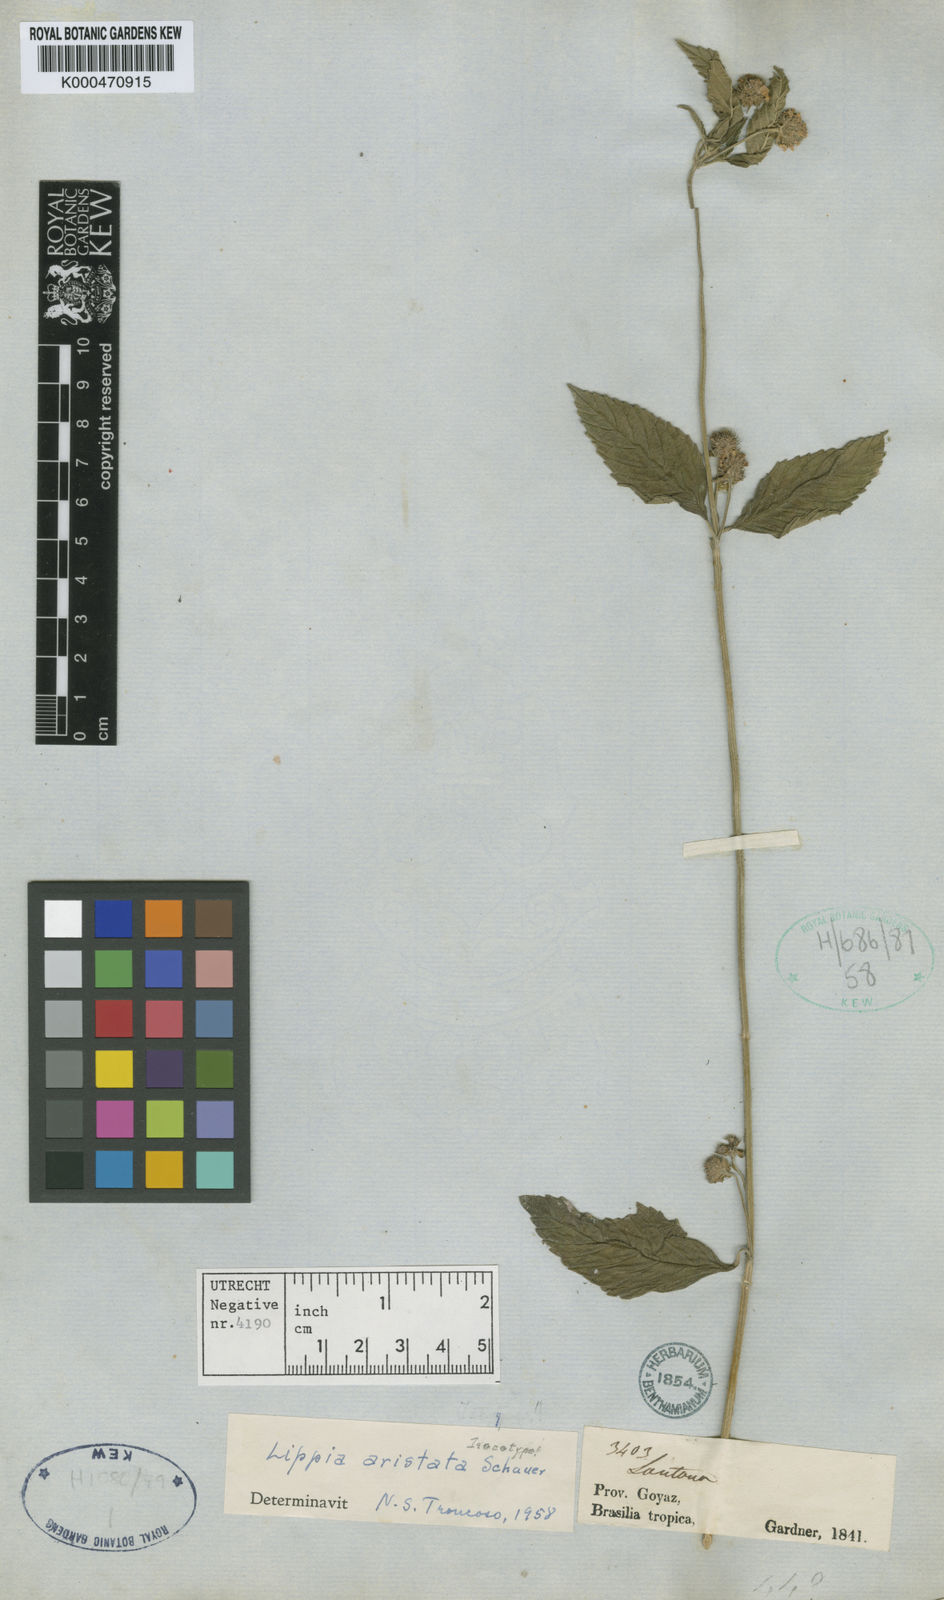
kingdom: Plantae
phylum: Tracheophyta
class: Magnoliopsida
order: Lamiales
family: Verbenaceae
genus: Lippia
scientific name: Lippia aristata
